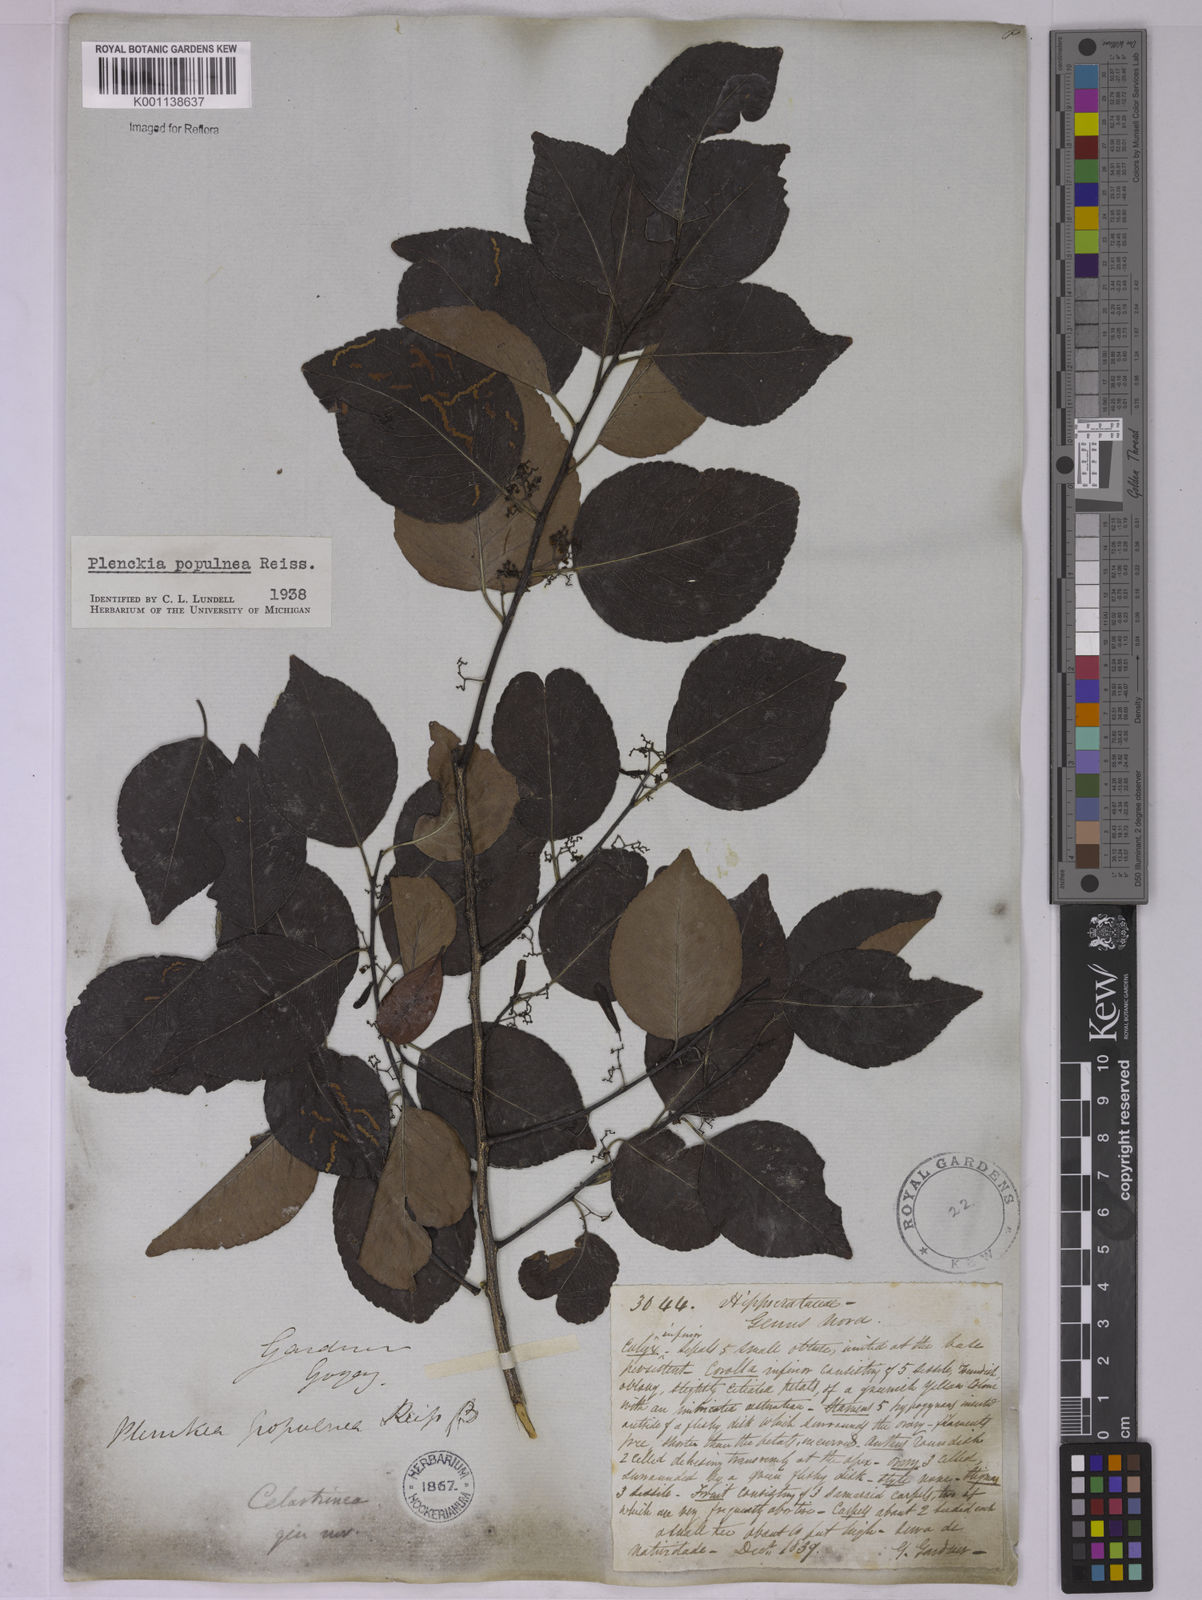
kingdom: Plantae
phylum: Tracheophyta
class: Magnoliopsida
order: Celastrales
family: Celastraceae
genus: Plenckia
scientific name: Plenckia populnea
